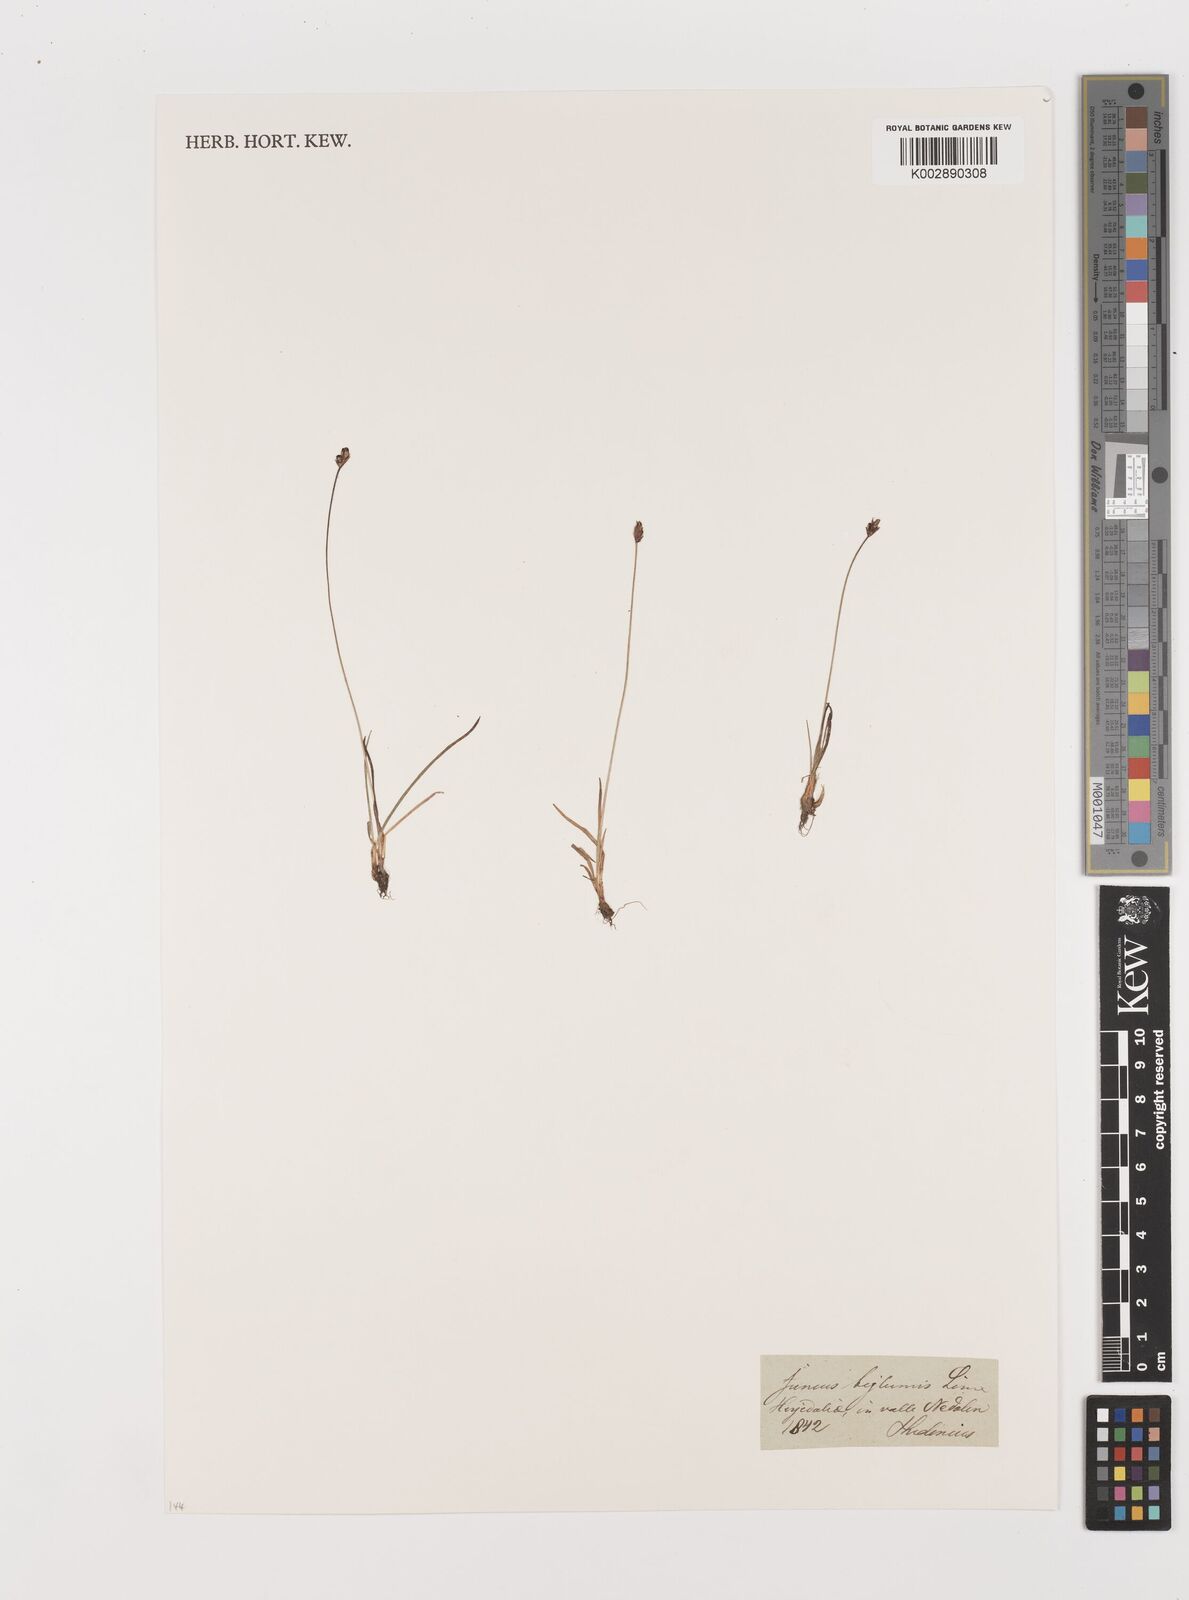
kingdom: Plantae
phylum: Tracheophyta
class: Liliopsida
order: Poales
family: Juncaceae
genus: Juncus
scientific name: Juncus biglumis
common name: Two-flowered rush
